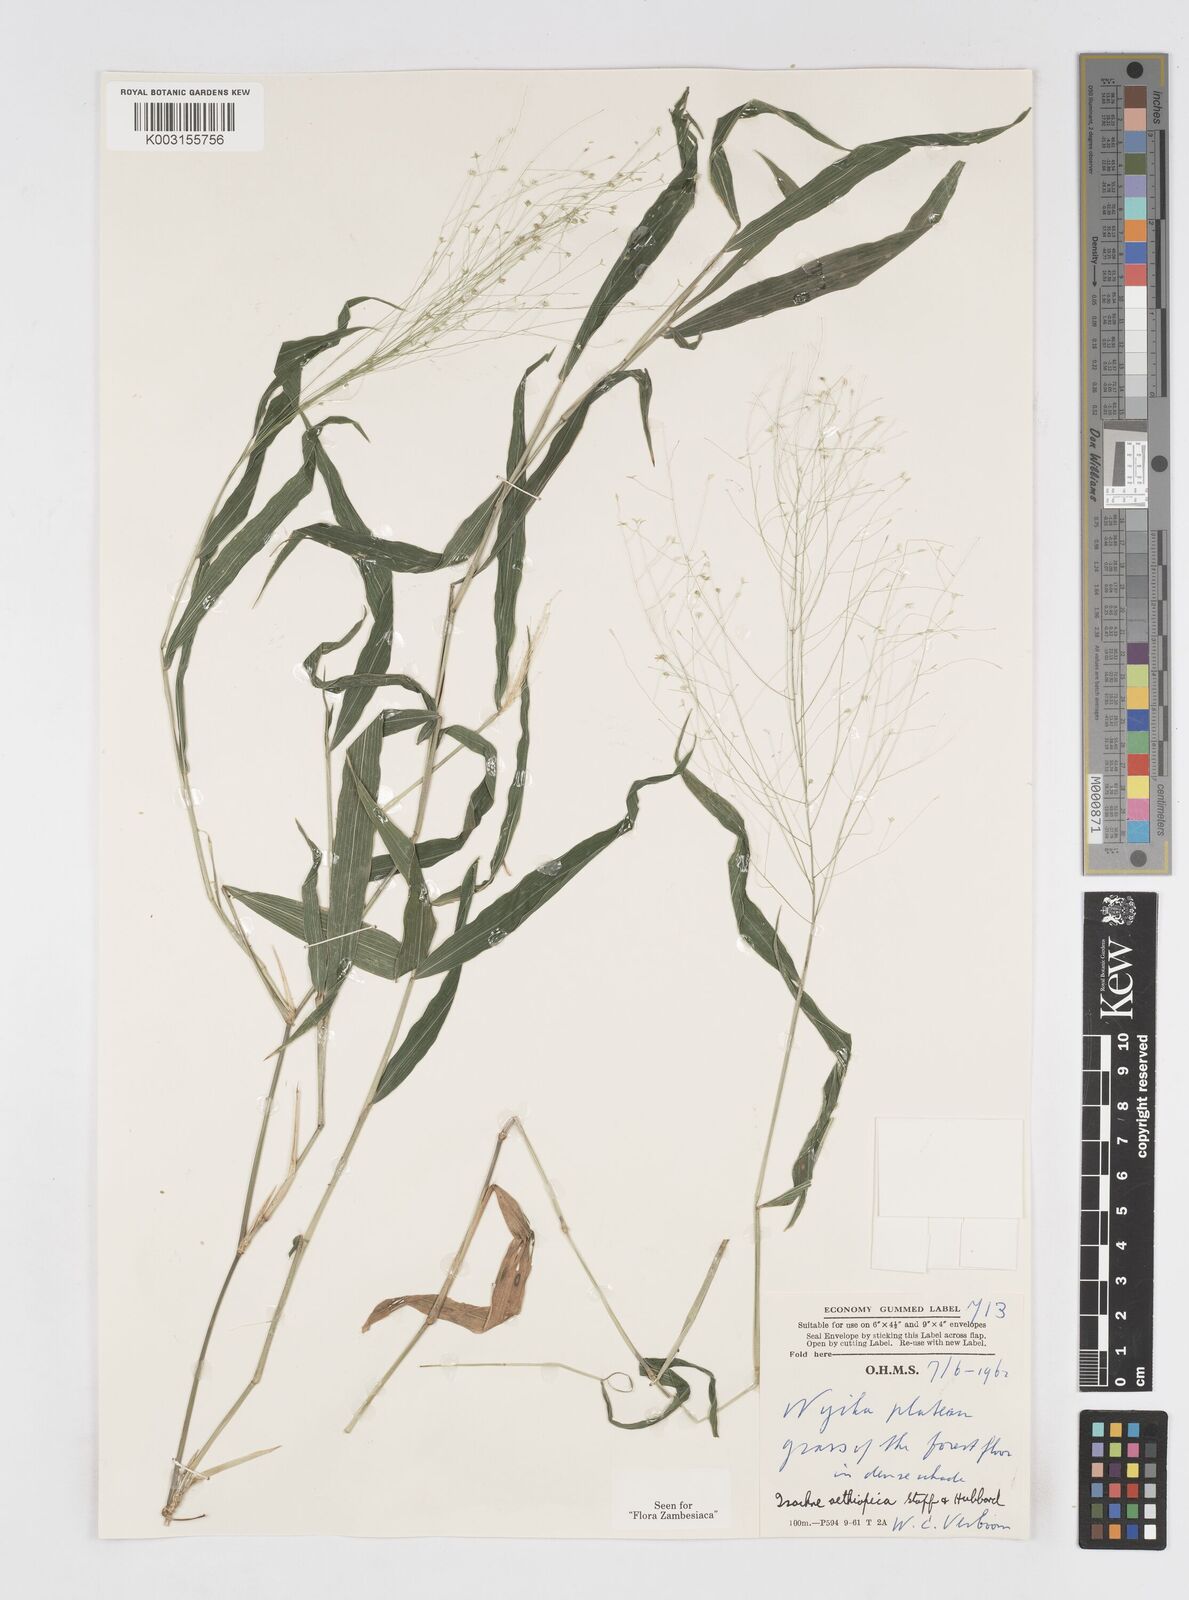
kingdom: Plantae
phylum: Tracheophyta
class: Liliopsida
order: Poales
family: Poaceae
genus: Isachne
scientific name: Isachne mauritiana
